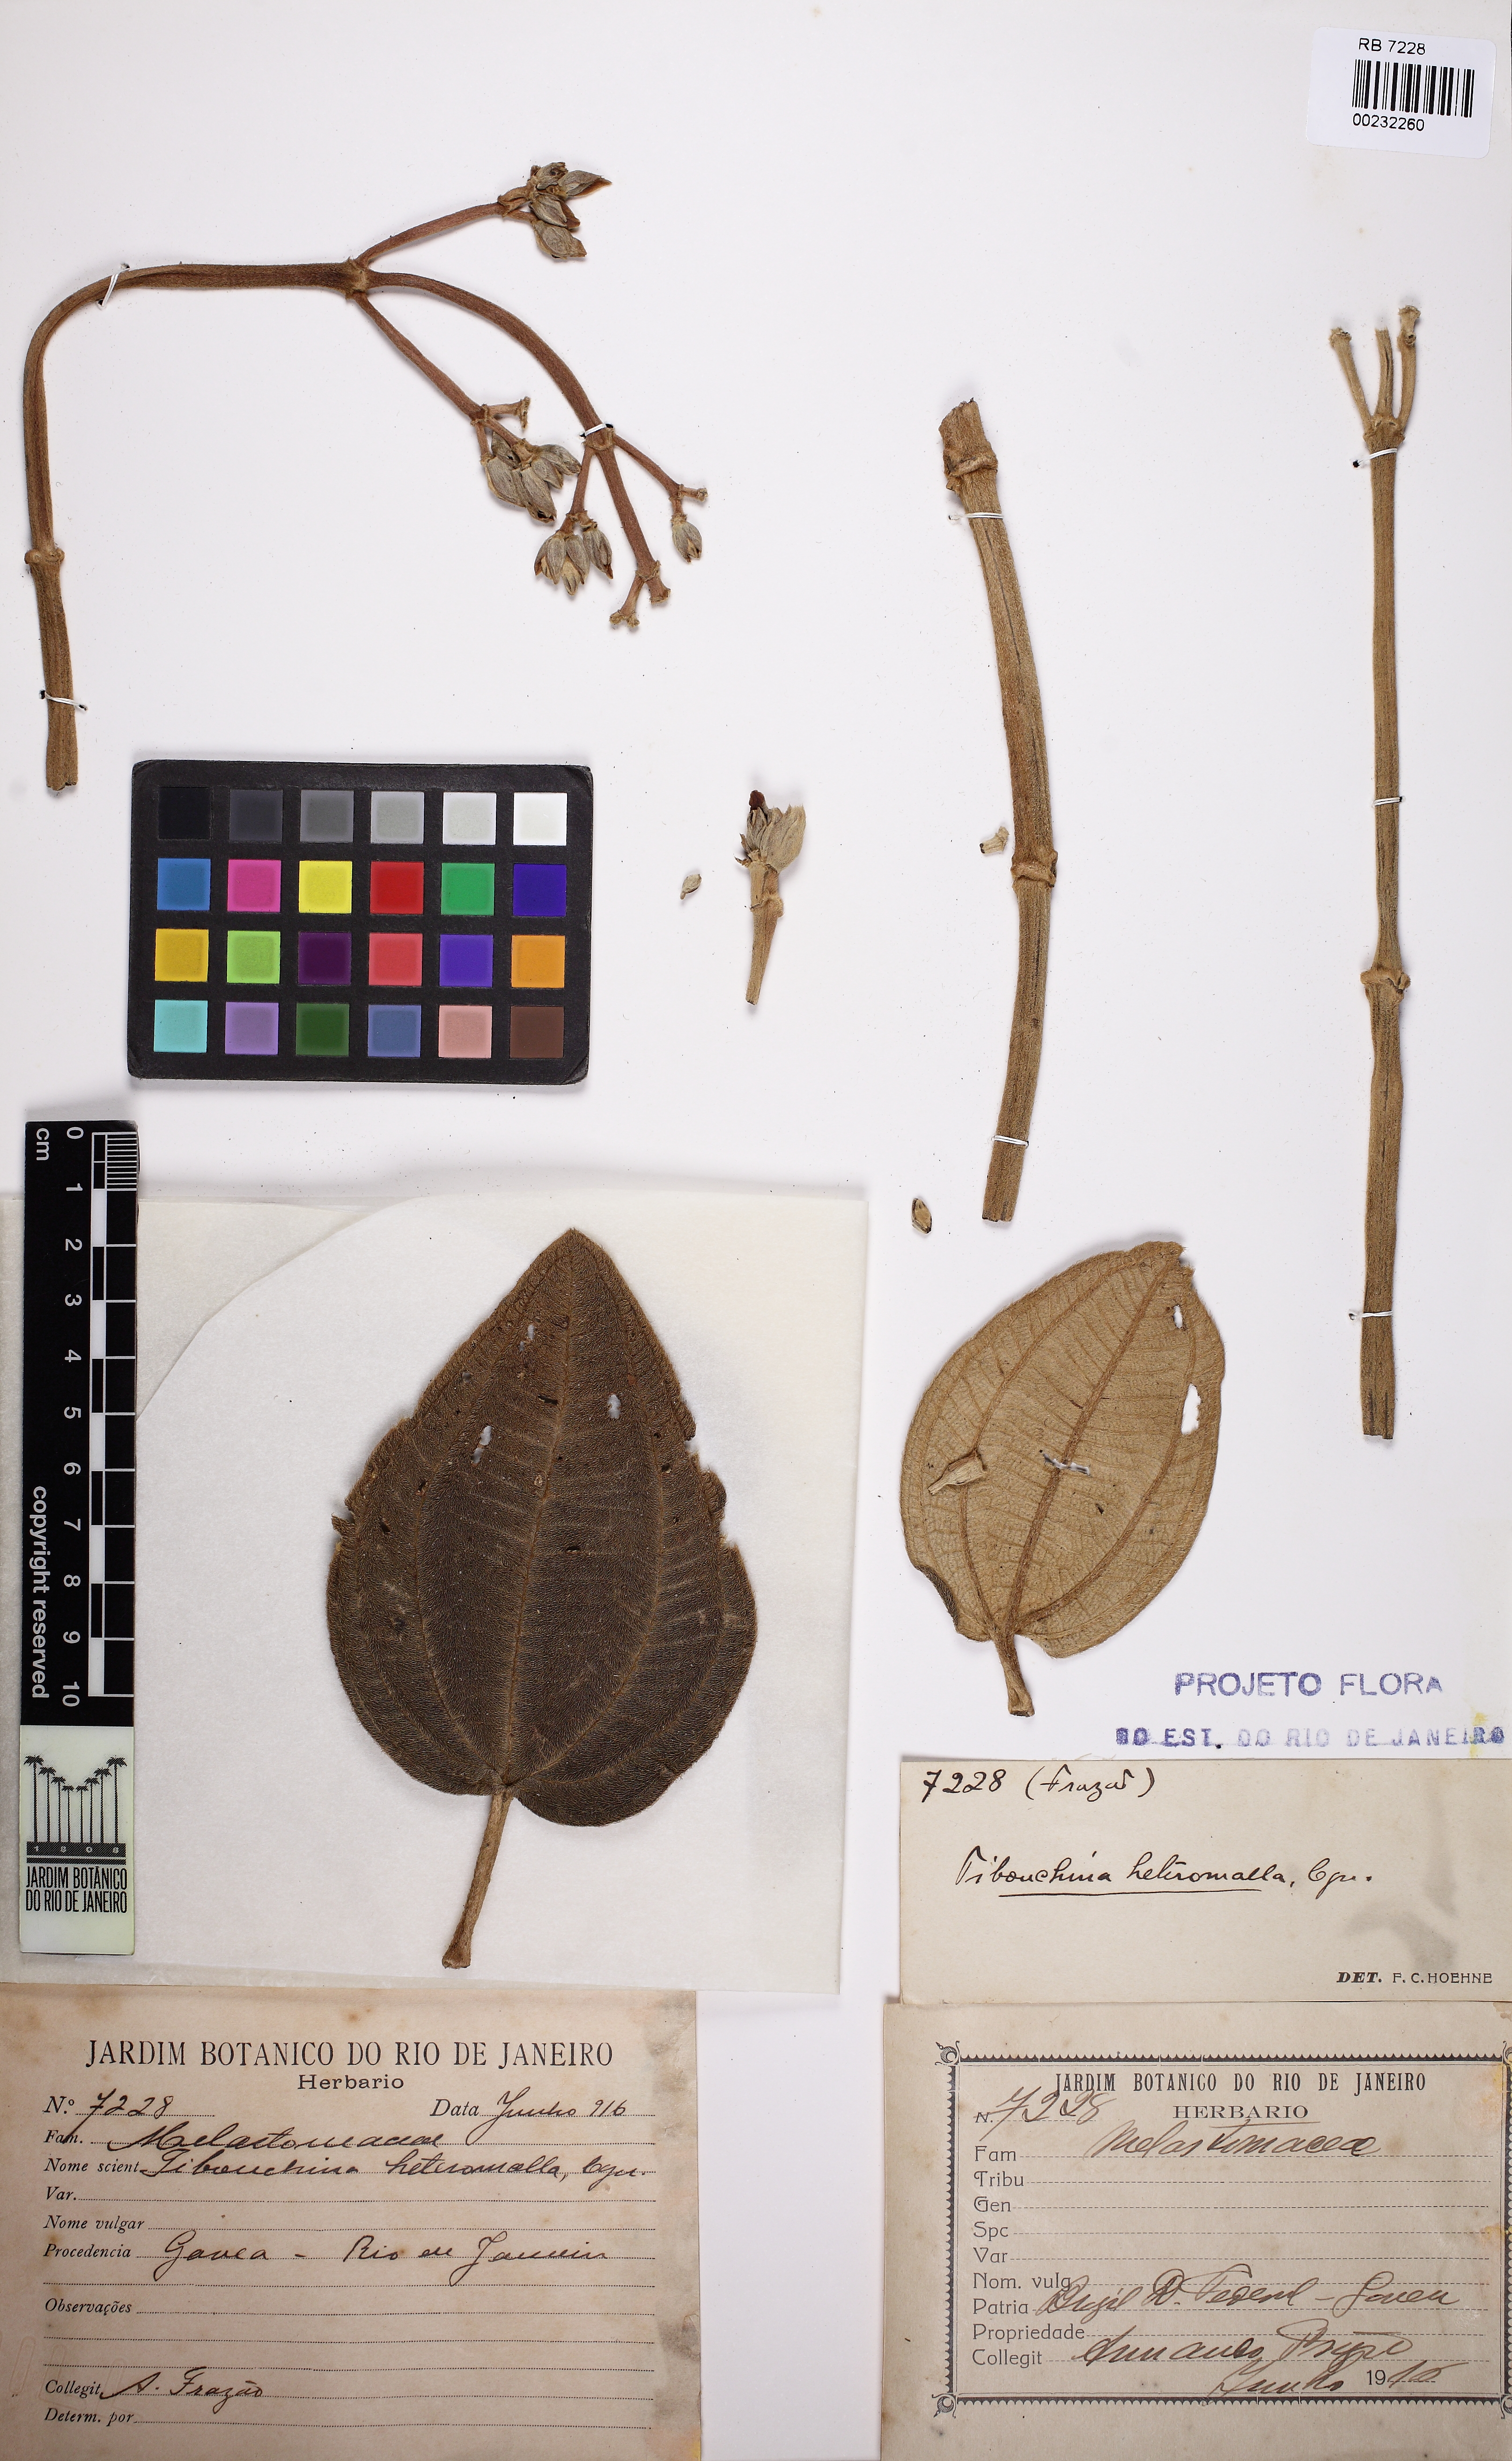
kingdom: Plantae
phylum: Tracheophyta
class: Magnoliopsida
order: Myrtales
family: Melastomataceae
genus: Pleroma
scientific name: Pleroma heteromallum
